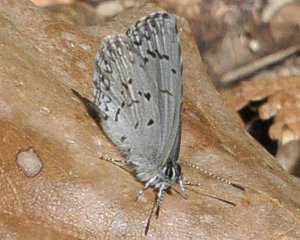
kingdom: Animalia
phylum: Arthropoda
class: Insecta
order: Lepidoptera
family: Lycaenidae
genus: Celastrina
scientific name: Celastrina lucia
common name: Northern Spring Azure
